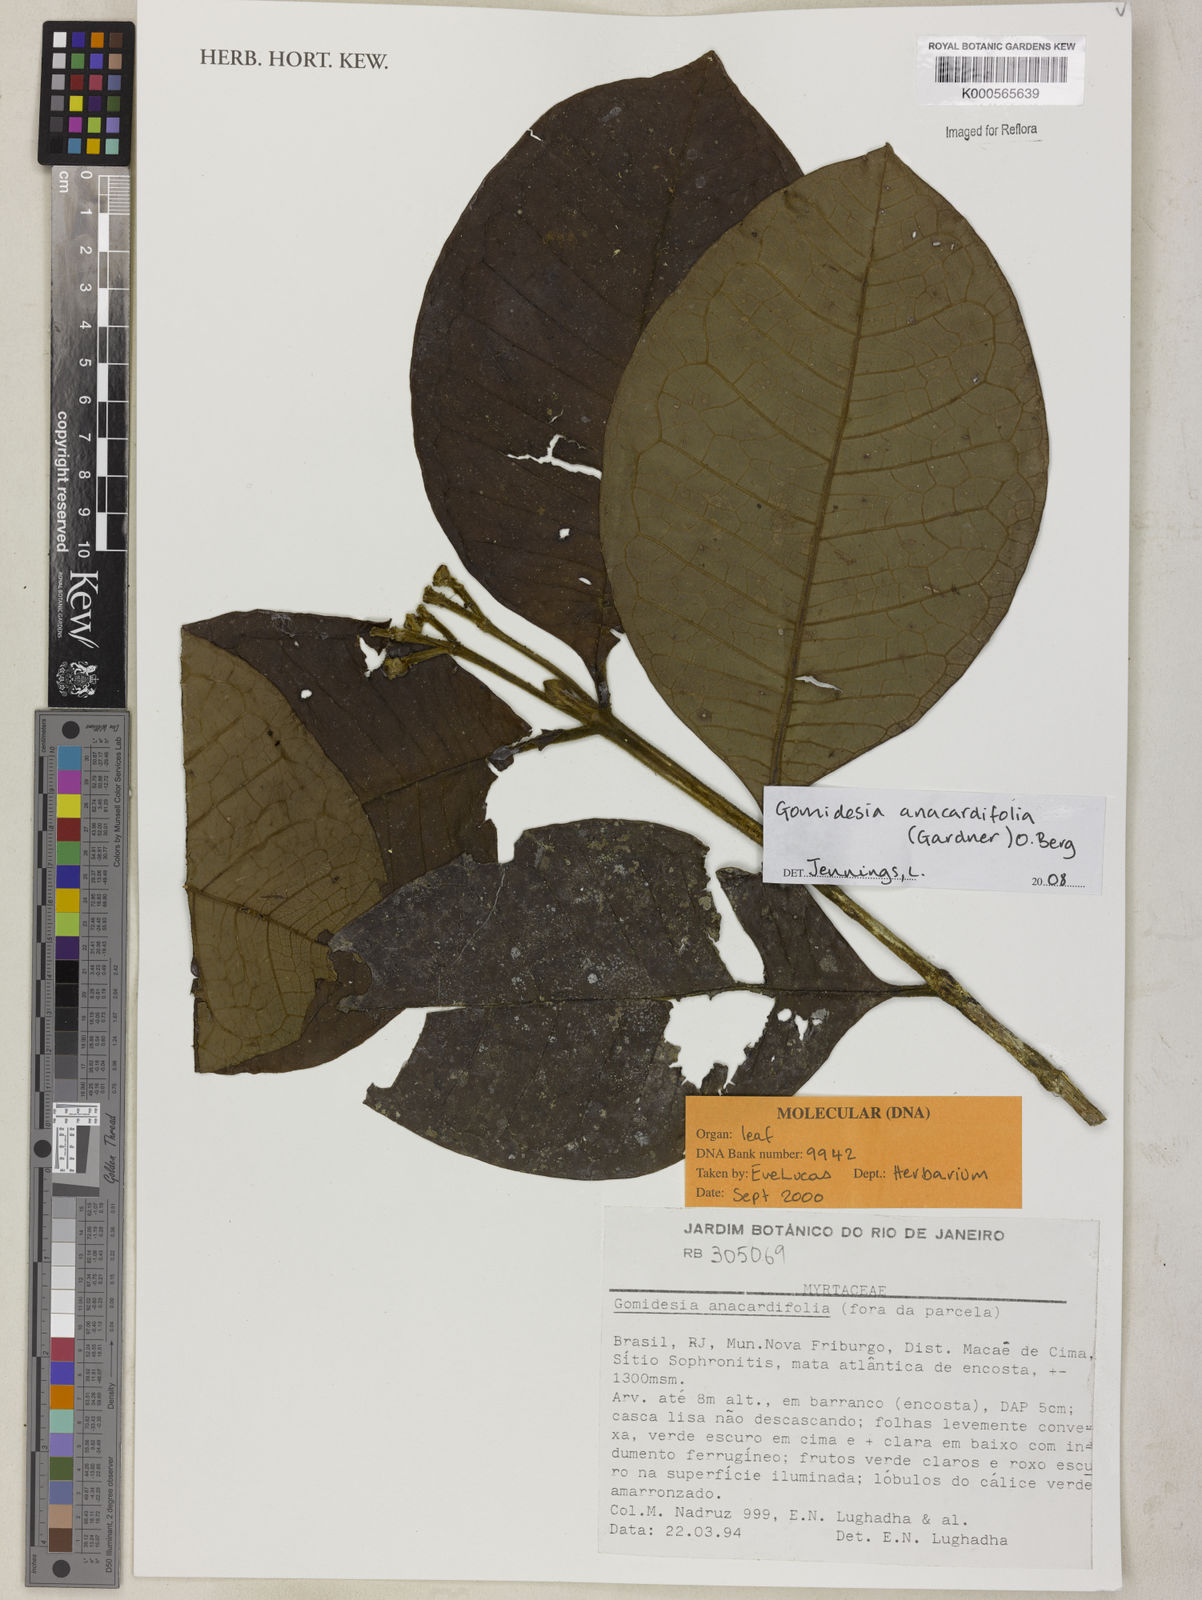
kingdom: Plantae
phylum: Tracheophyta
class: Magnoliopsida
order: Myrtales
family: Myrtaceae
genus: Myrcia
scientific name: Myrcia anacardiifolia
